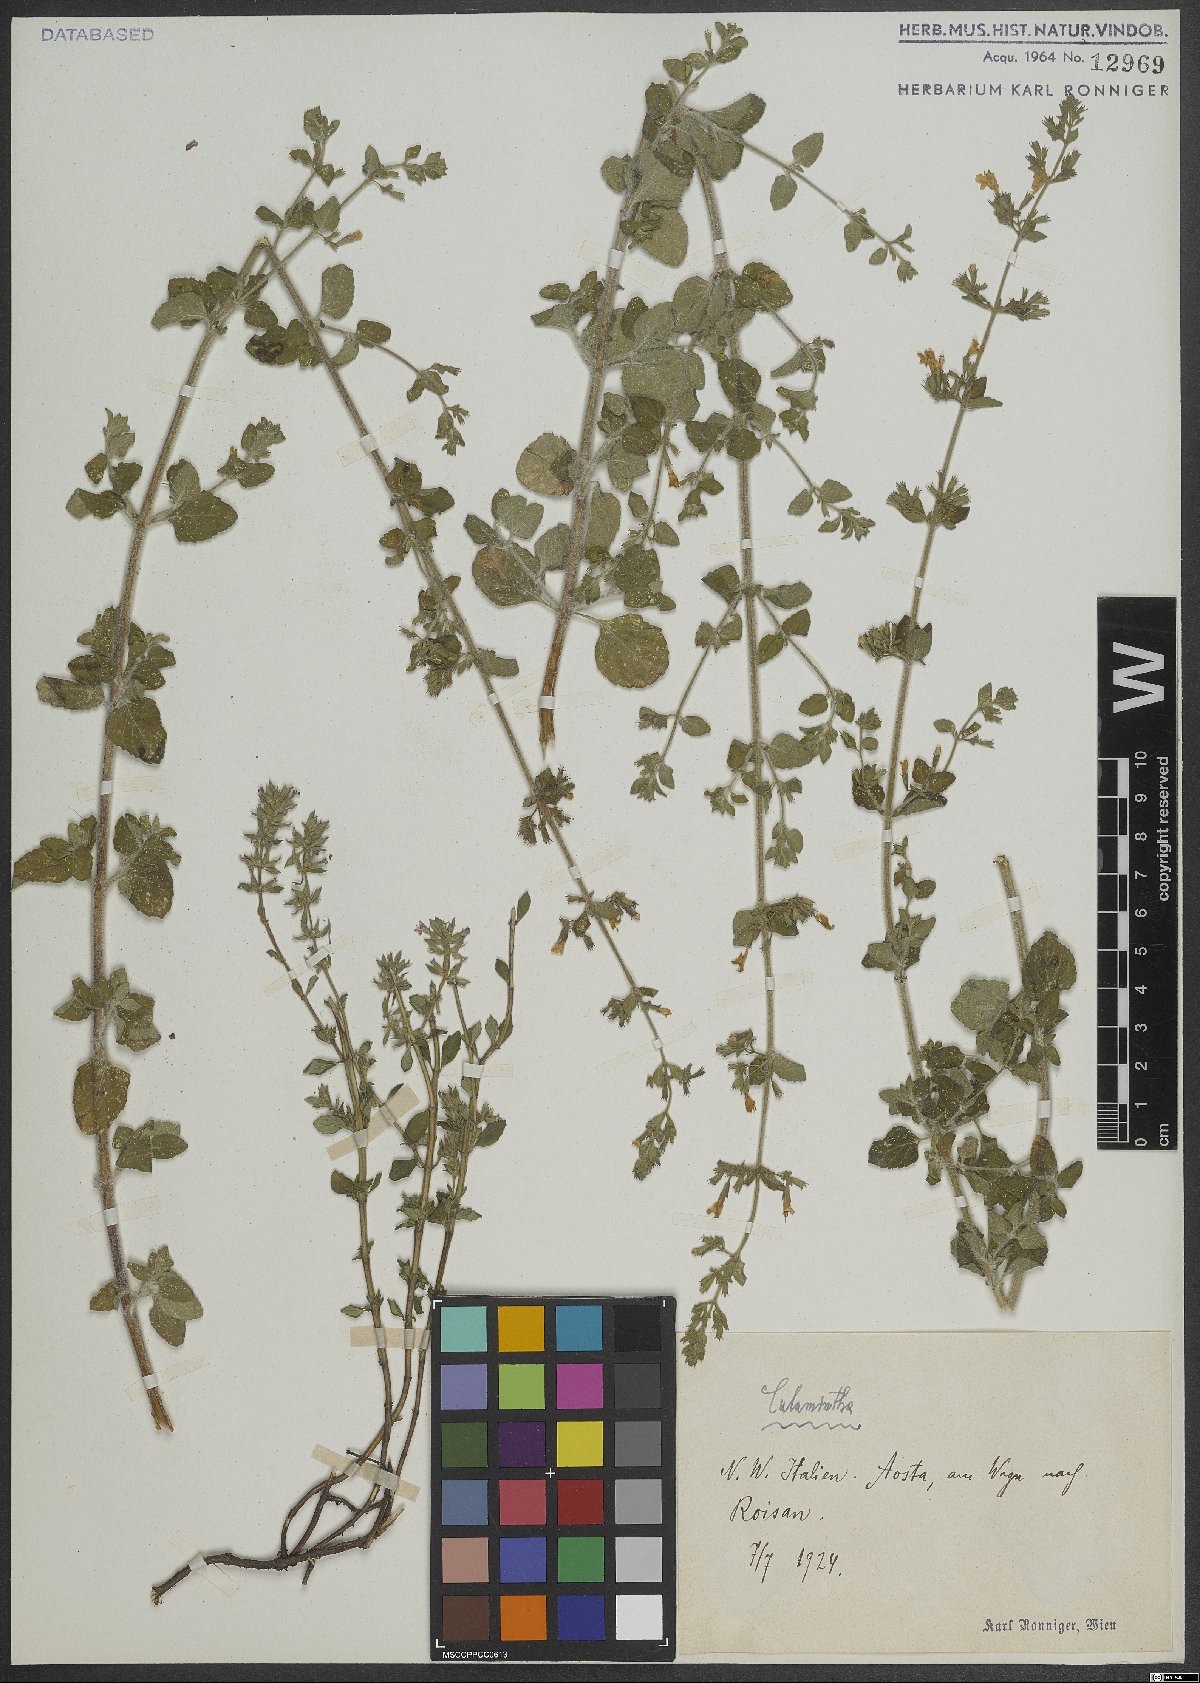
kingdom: Plantae
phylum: Tracheophyta
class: Magnoliopsida
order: Lamiales
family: Lamiaceae
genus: Calamintha
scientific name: Calamintha
